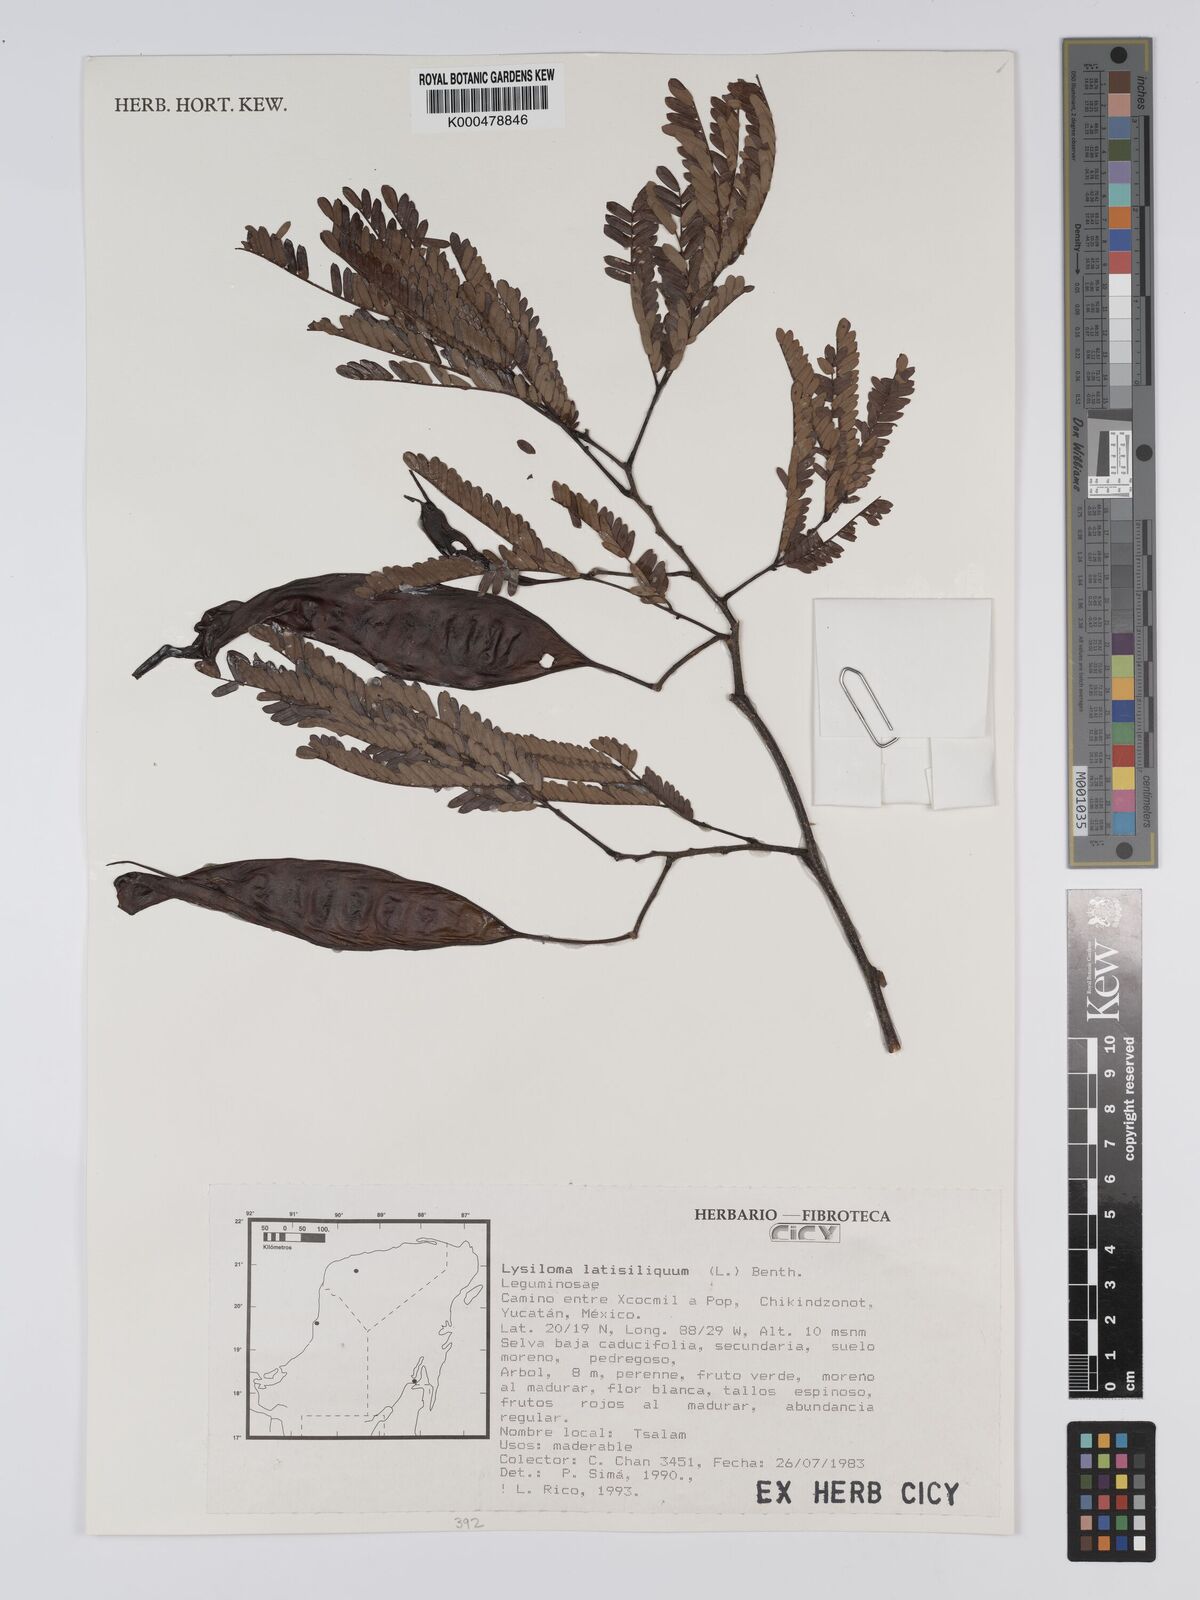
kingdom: Plantae
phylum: Tracheophyta
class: Magnoliopsida
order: Fabales
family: Fabaceae
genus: Lysiloma
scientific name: Lysiloma latisiliquum
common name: Wild tamarind
